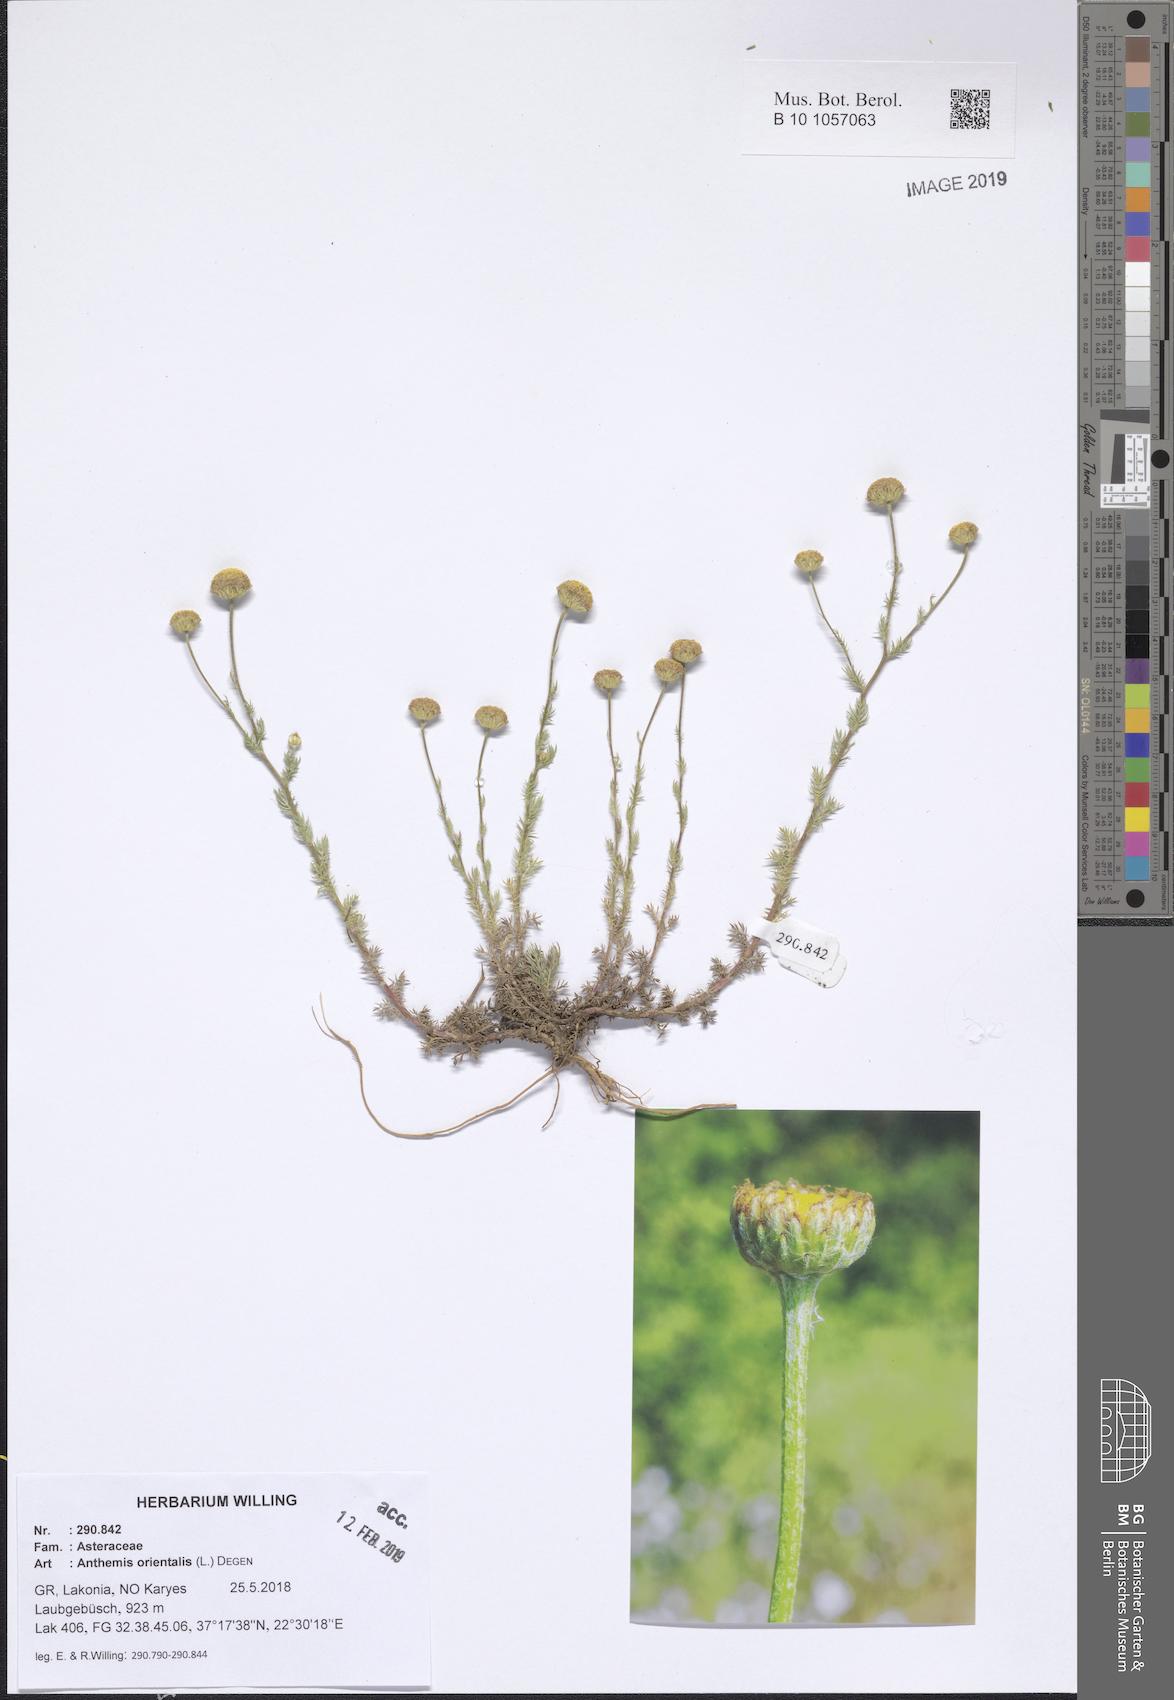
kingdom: Plantae
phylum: Tracheophyta
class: Magnoliopsida
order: Asterales
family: Asteraceae
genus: Anthemis
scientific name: Anthemis orientalis
